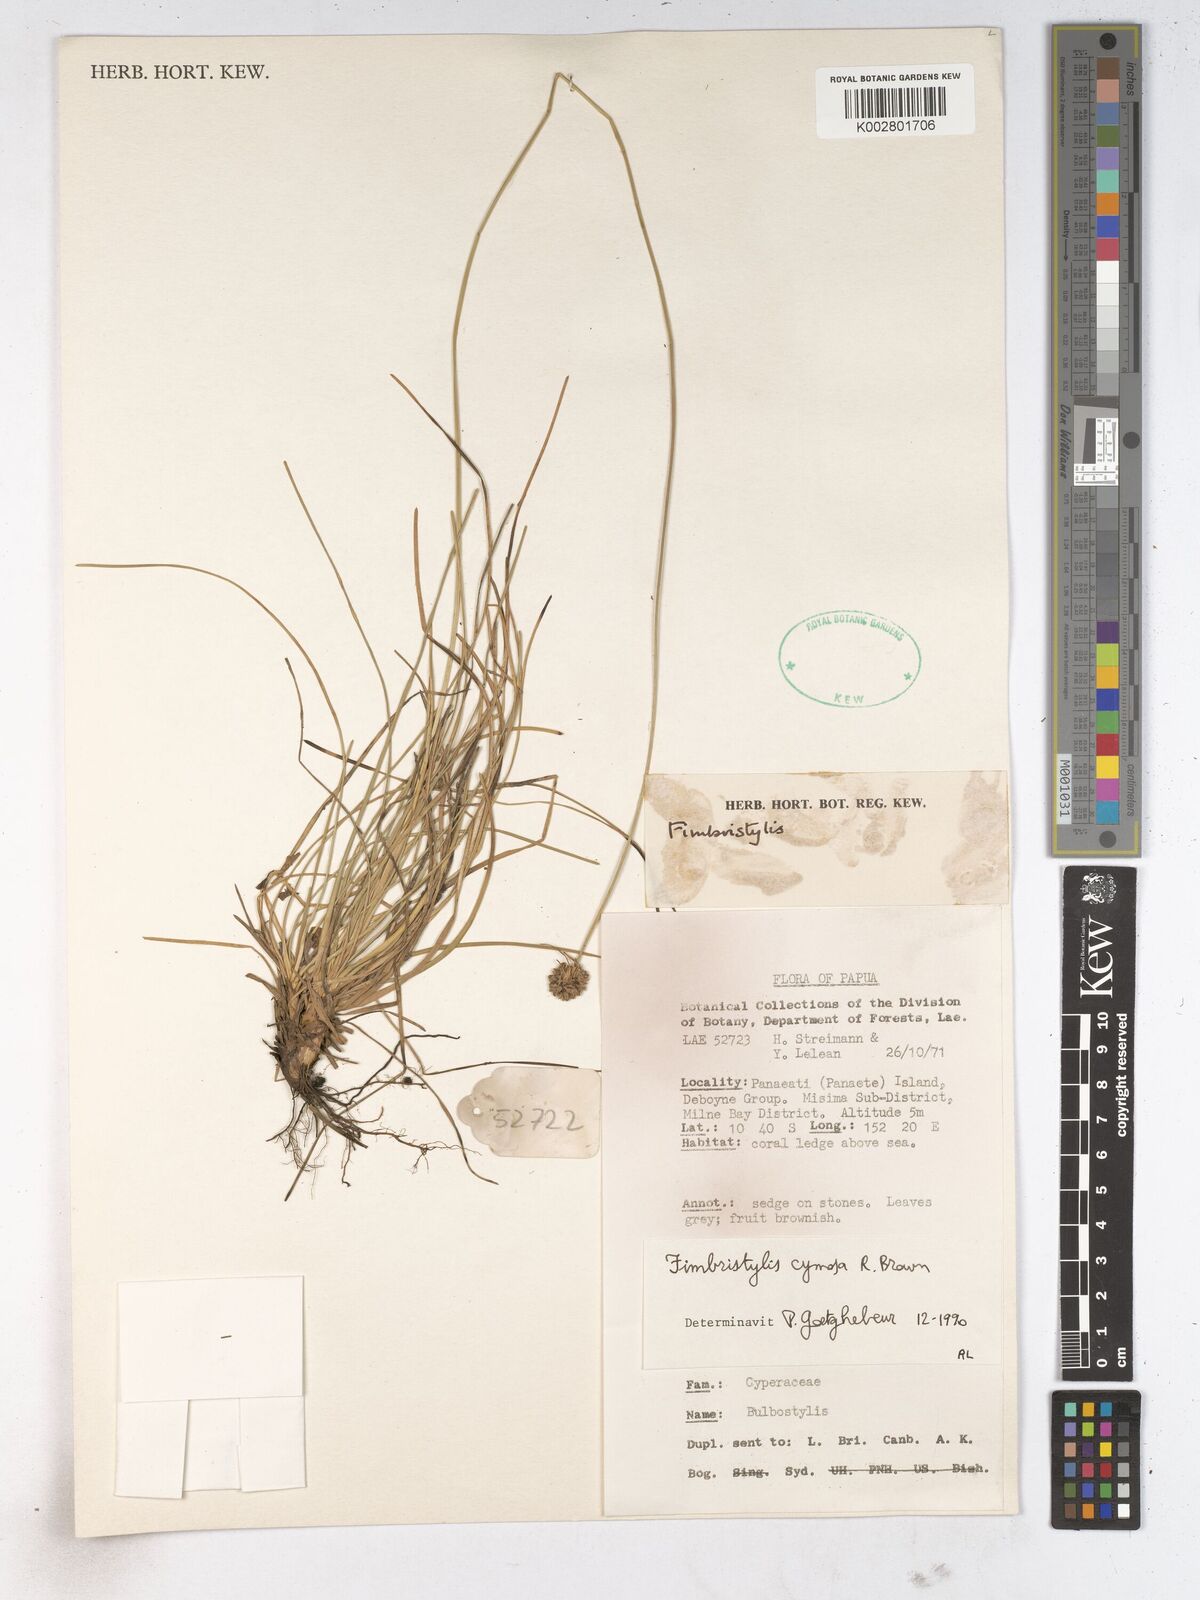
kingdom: Plantae
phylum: Tracheophyta
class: Liliopsida
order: Poales
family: Cyperaceae
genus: Fimbristylis
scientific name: Fimbristylis cymosa
